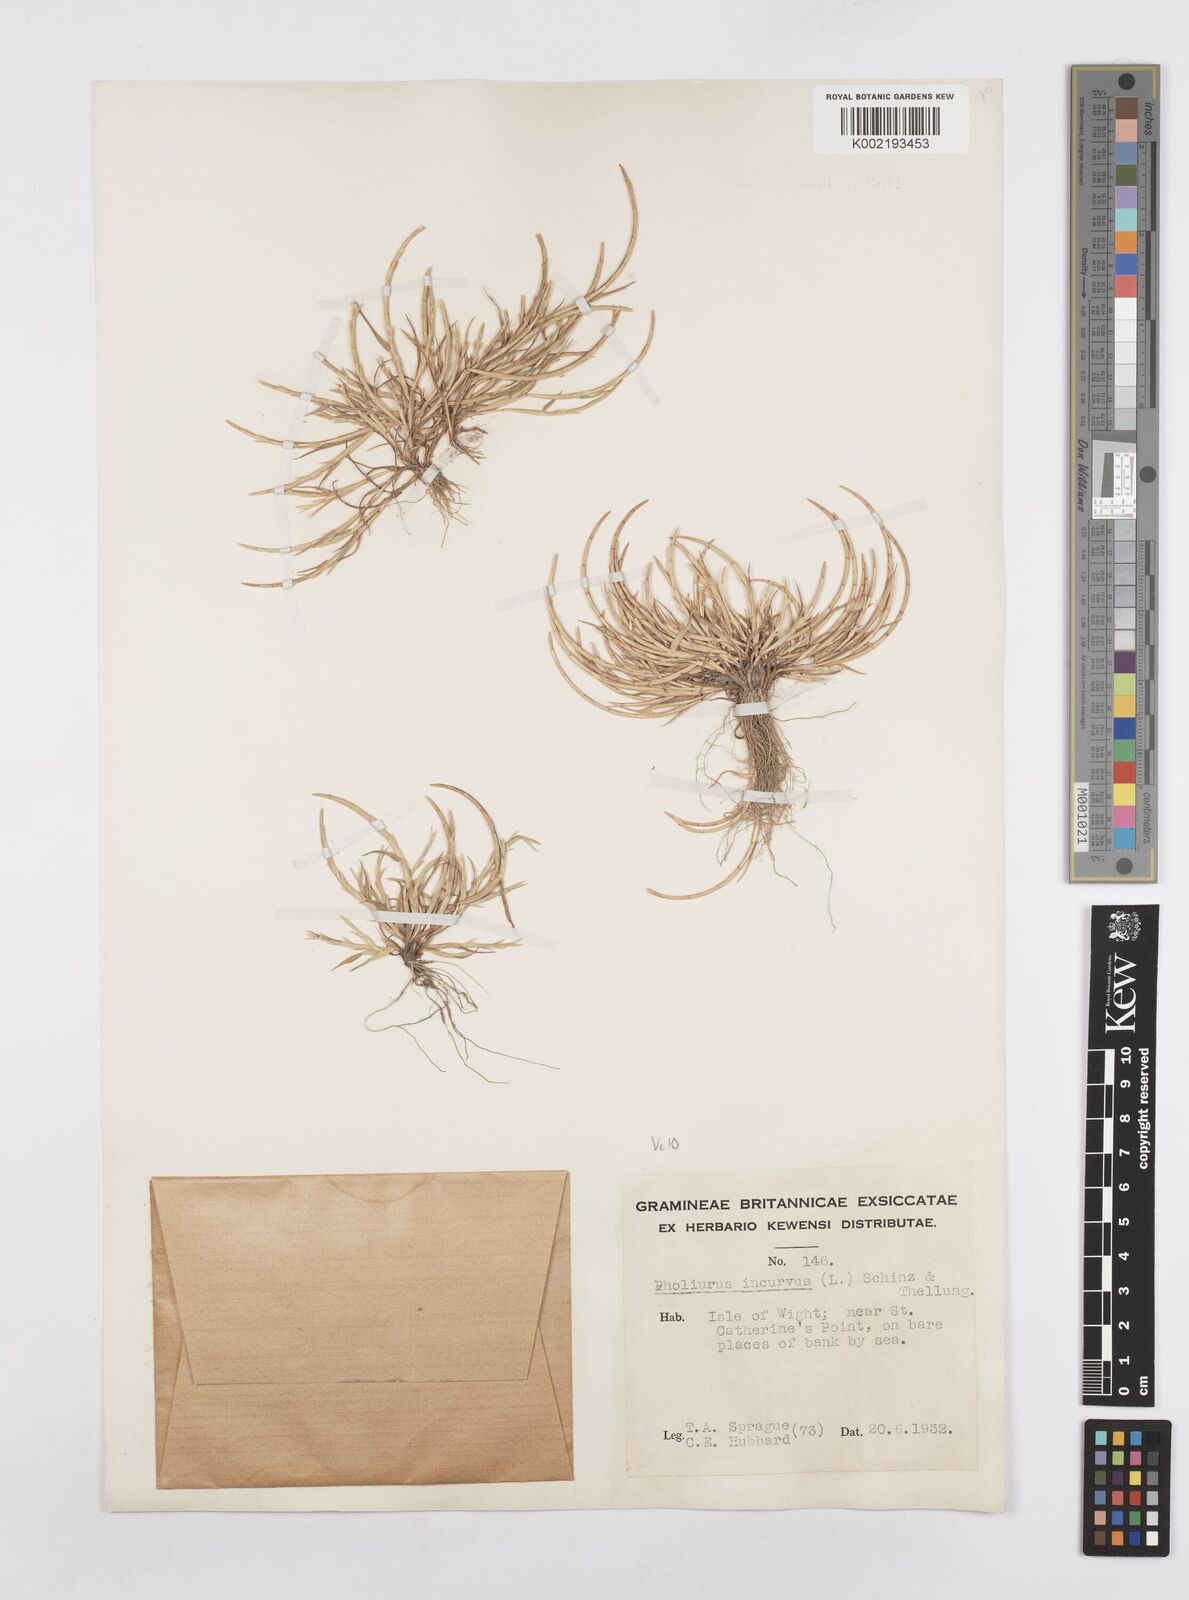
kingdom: Plantae
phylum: Tracheophyta
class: Liliopsida
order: Poales
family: Poaceae
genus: Parapholis
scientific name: Parapholis incurva
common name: Curved sicklegrass
